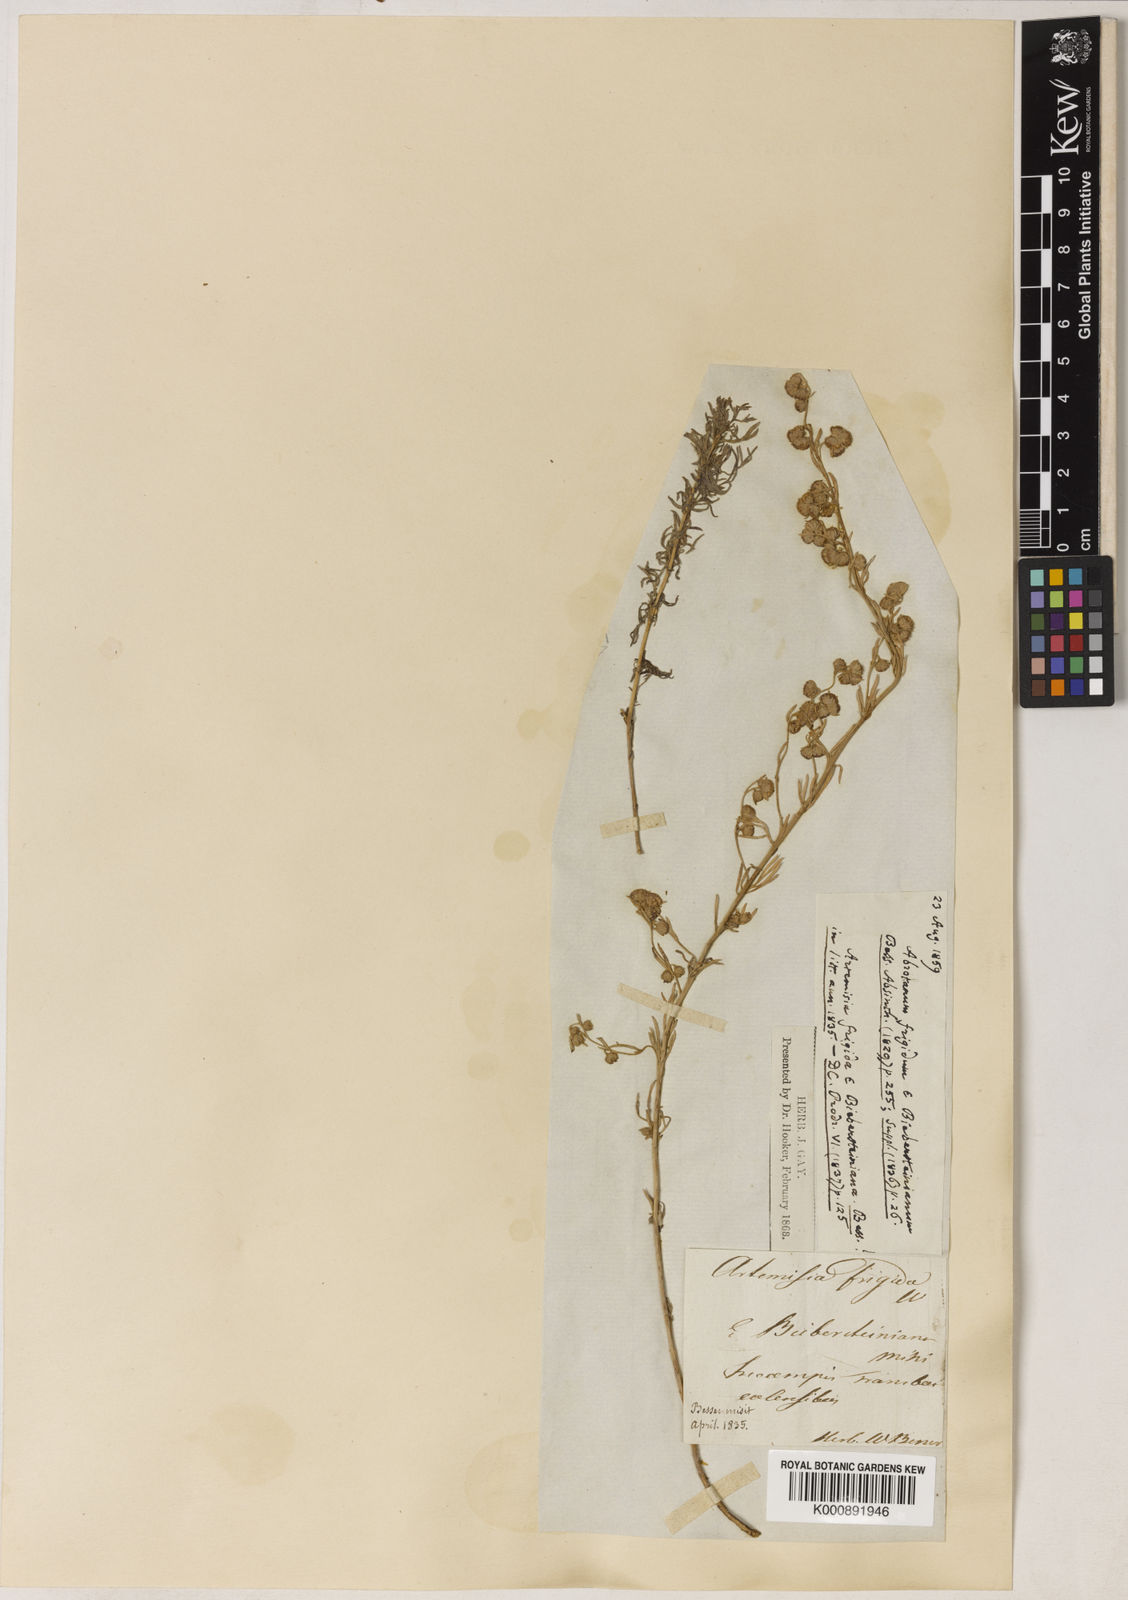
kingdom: Plantae
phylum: Tracheophyta
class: Magnoliopsida
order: Asterales
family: Asteraceae
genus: Artemisia
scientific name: Artemisia frigida
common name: Prairie sagewort
